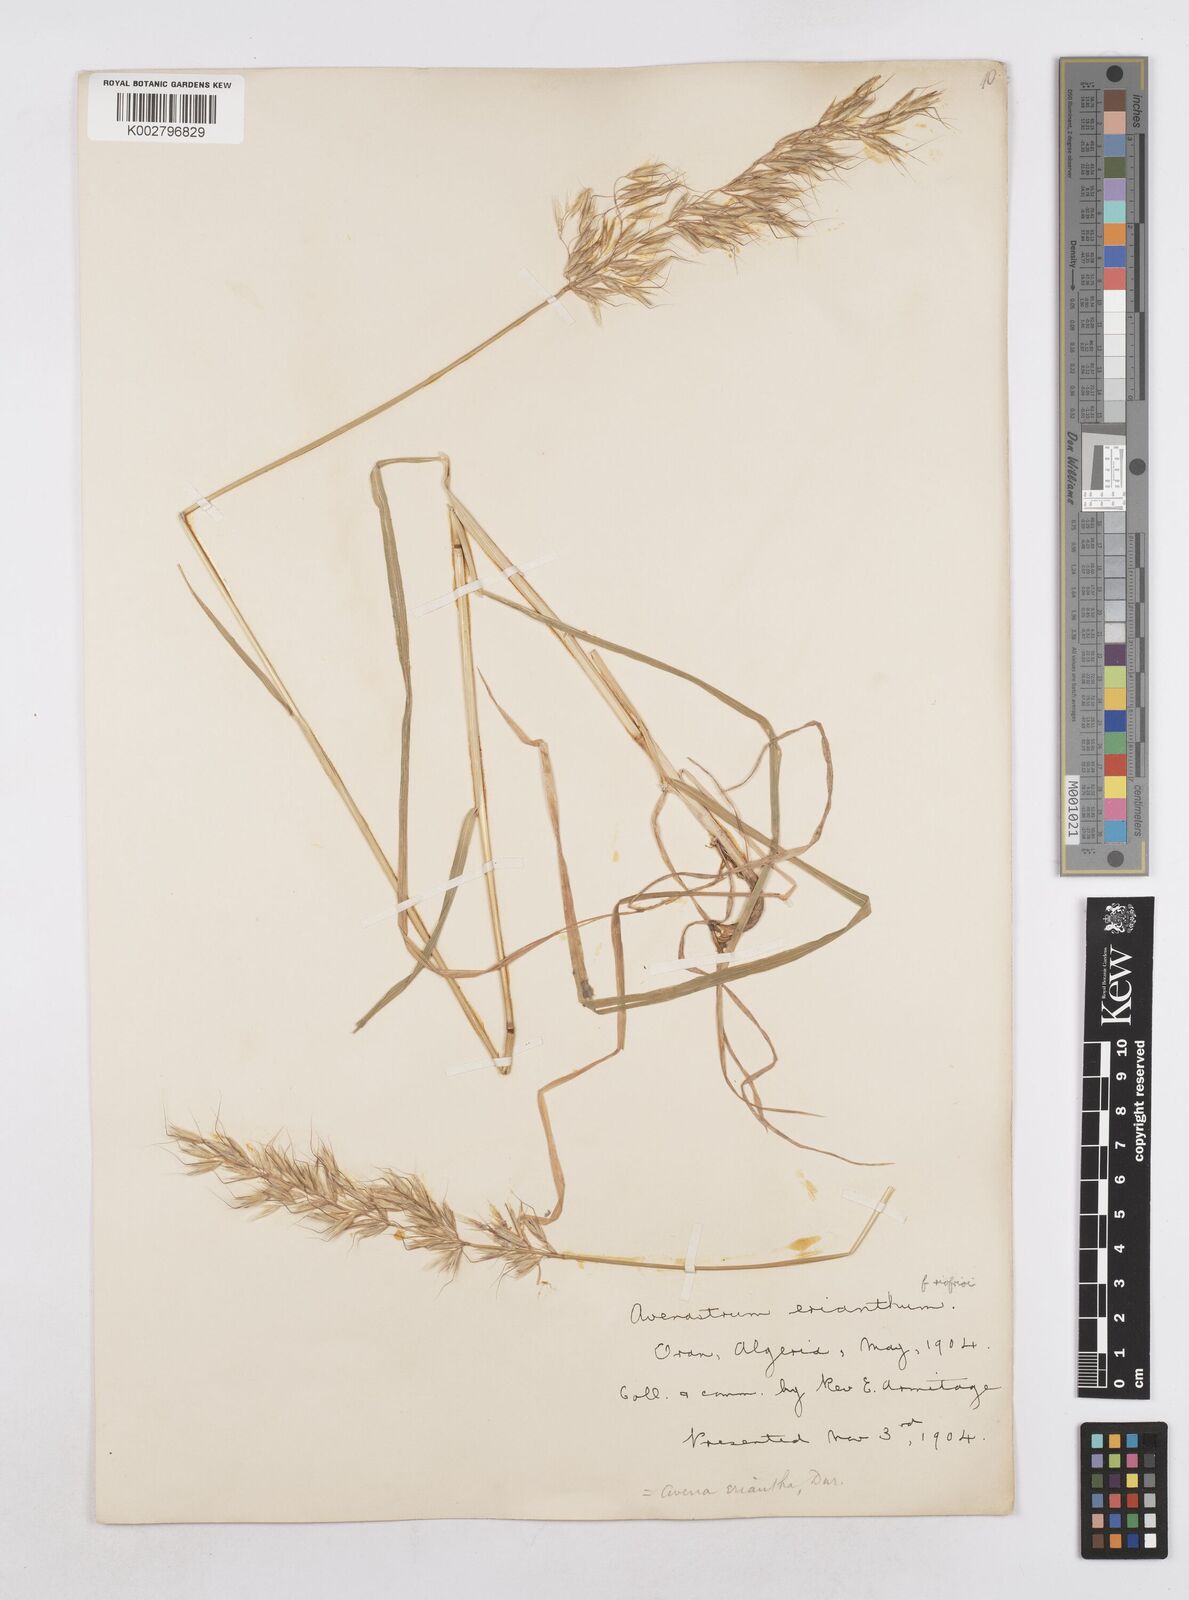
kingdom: Plantae
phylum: Tracheophyta
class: Liliopsida
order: Poales
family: Poaceae
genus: Arrhenatherum
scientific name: Arrhenatherum
